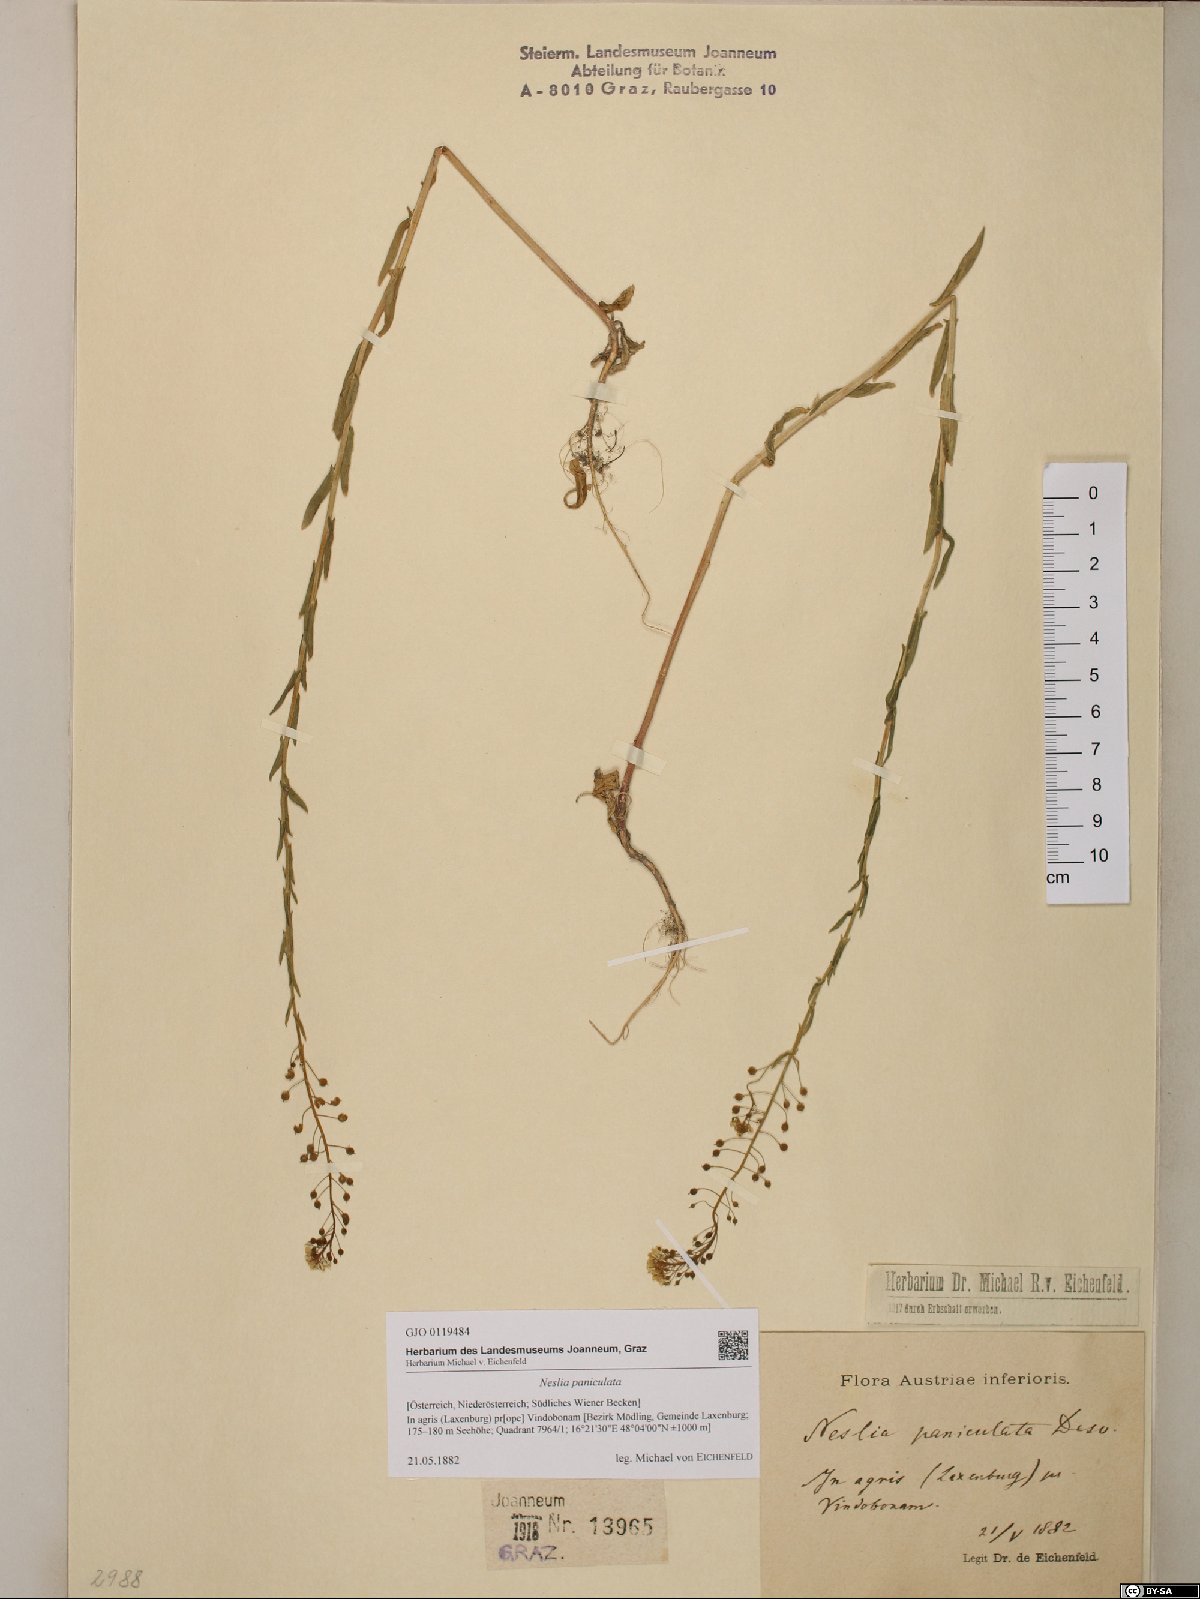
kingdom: Plantae
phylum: Tracheophyta
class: Magnoliopsida
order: Brassicales
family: Brassicaceae
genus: Neslia
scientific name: Neslia paniculata
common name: Ball mustard
